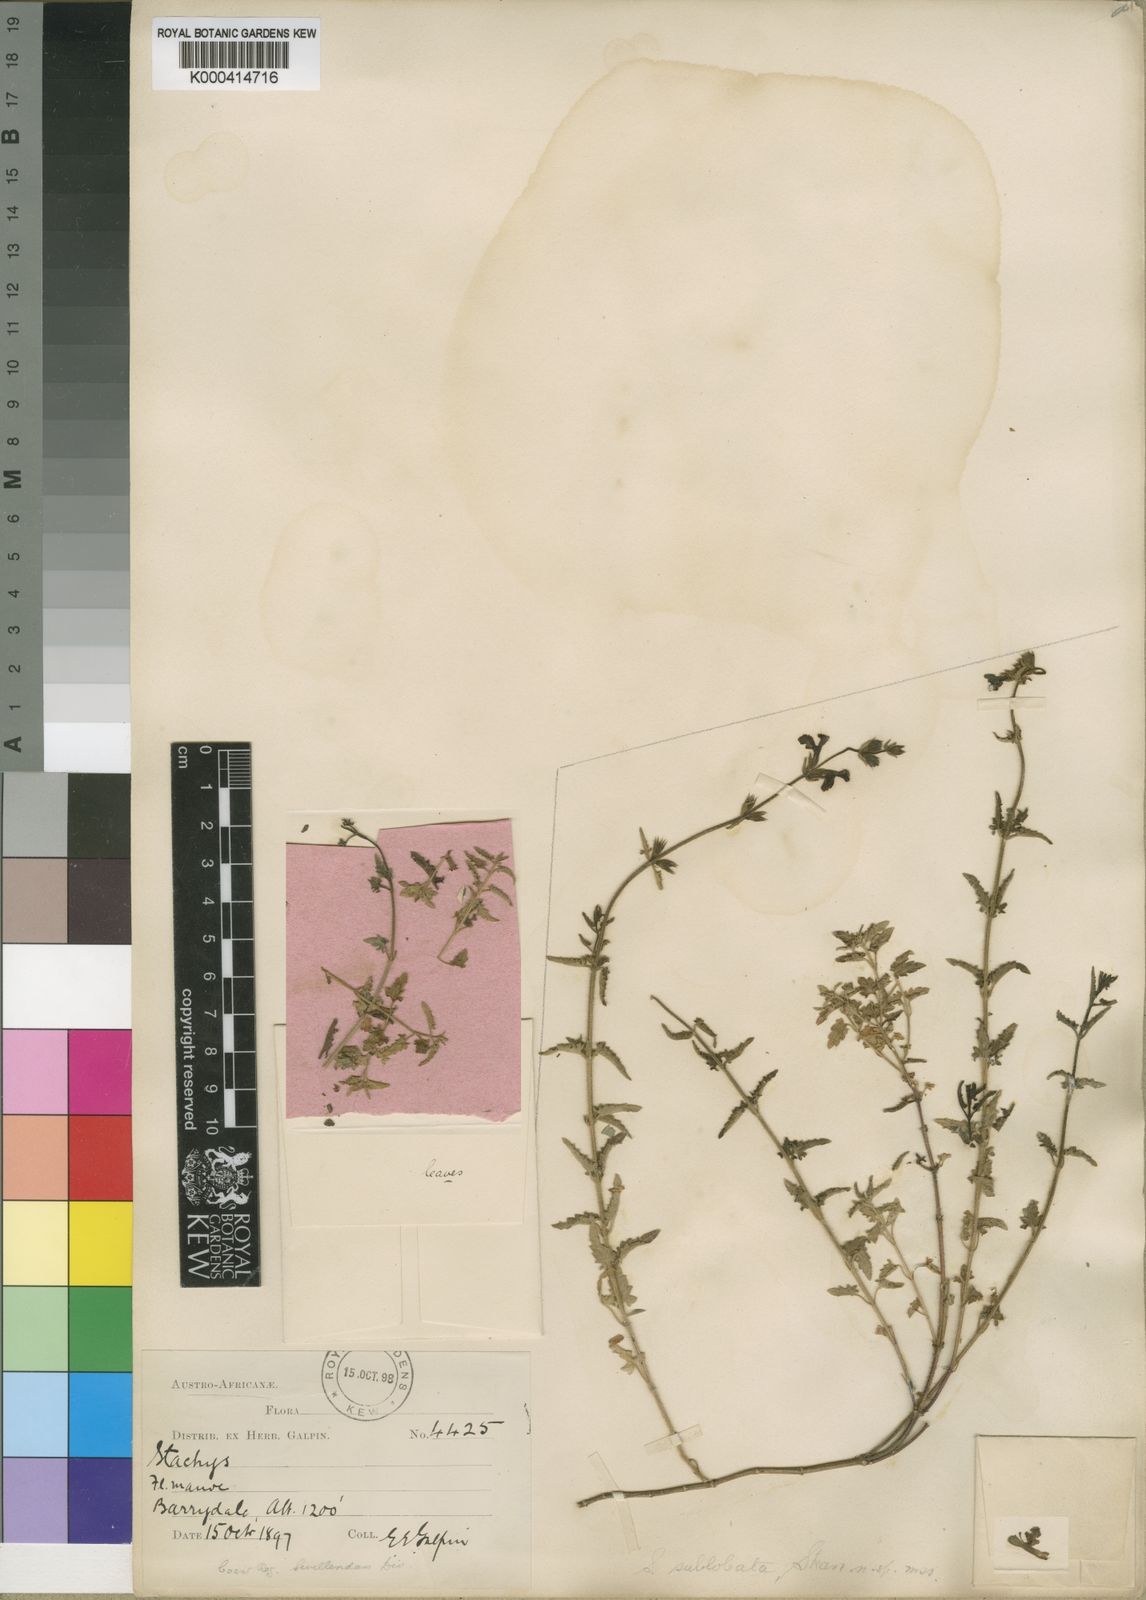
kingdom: Plantae
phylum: Tracheophyta
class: Magnoliopsida
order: Lamiales
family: Lamiaceae
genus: Stachys
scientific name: Stachys sublobata
